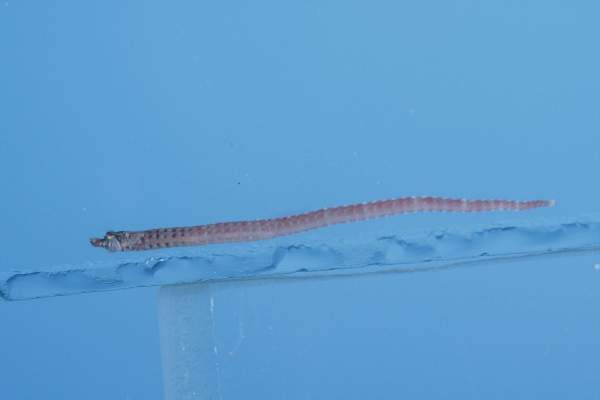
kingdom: Animalia
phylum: Chordata
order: Syngnathiformes
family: Syngnathidae
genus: Micrognathus
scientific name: Micrognathus brevirostris
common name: Pygmy pipefish
